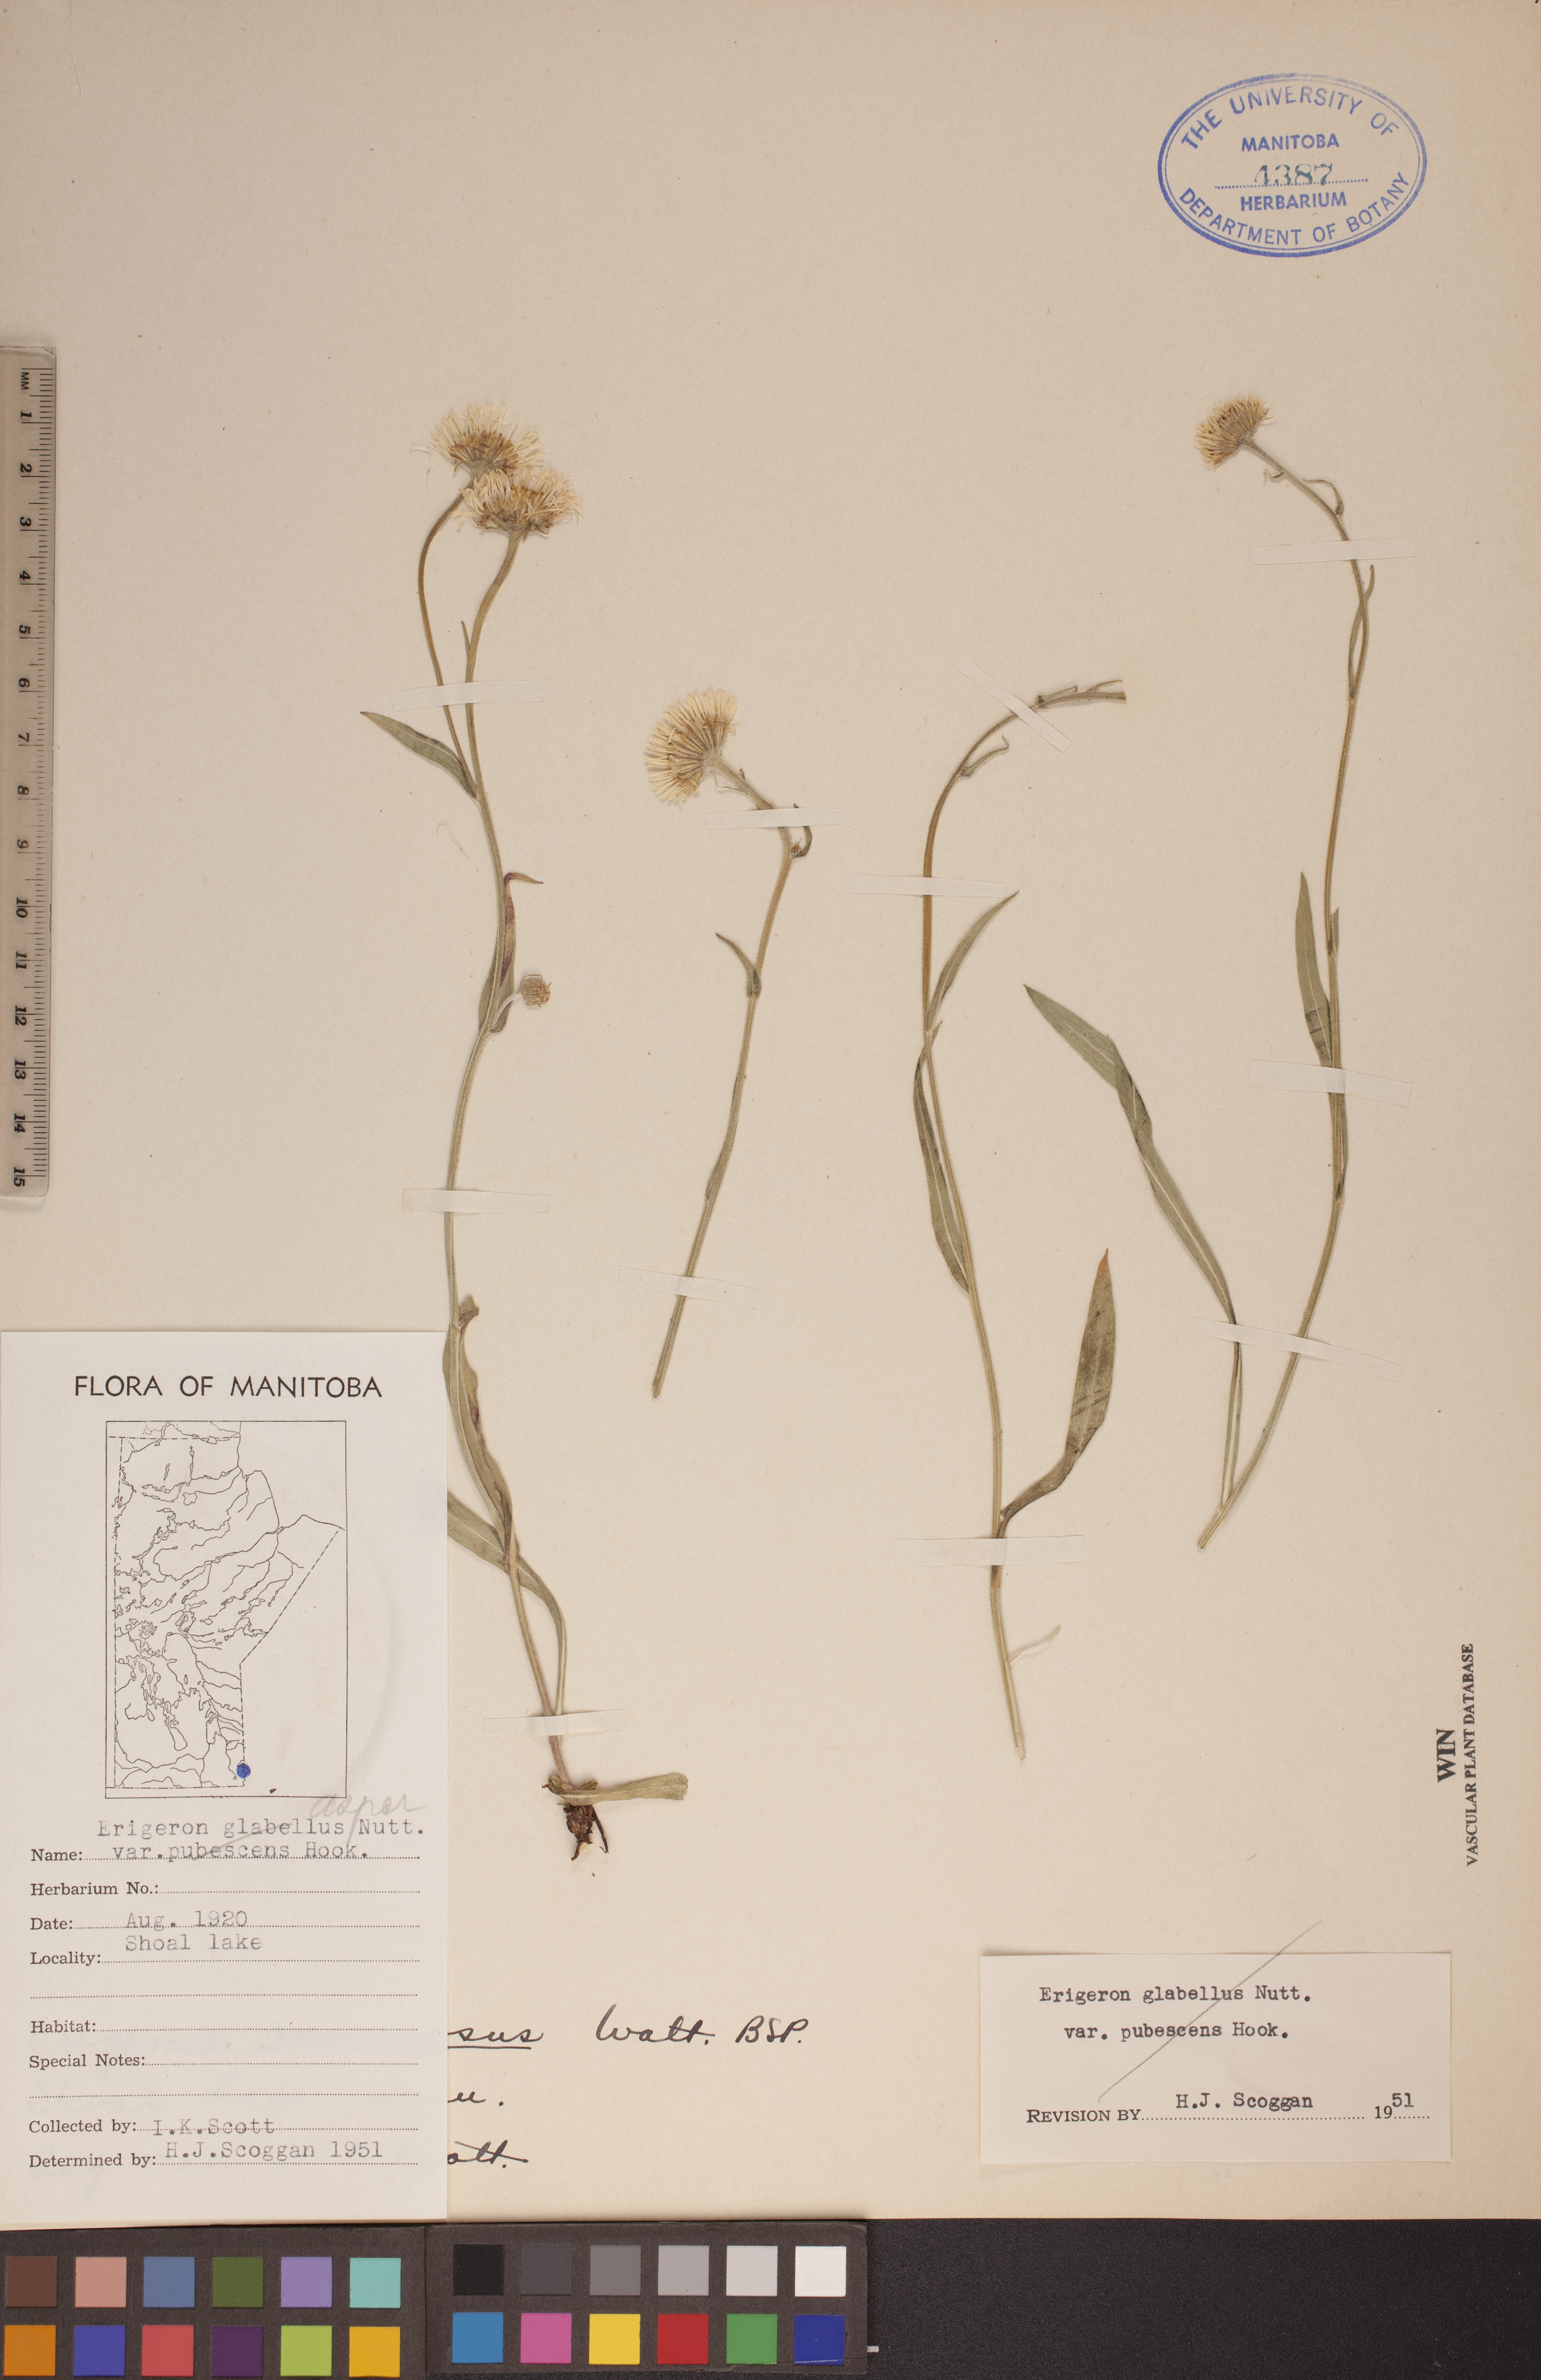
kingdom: Plantae
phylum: Tracheophyta
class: Magnoliopsida
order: Asterales
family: Asteraceae
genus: Erigeron
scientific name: Erigeron glabellus
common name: Smooth fleabane
